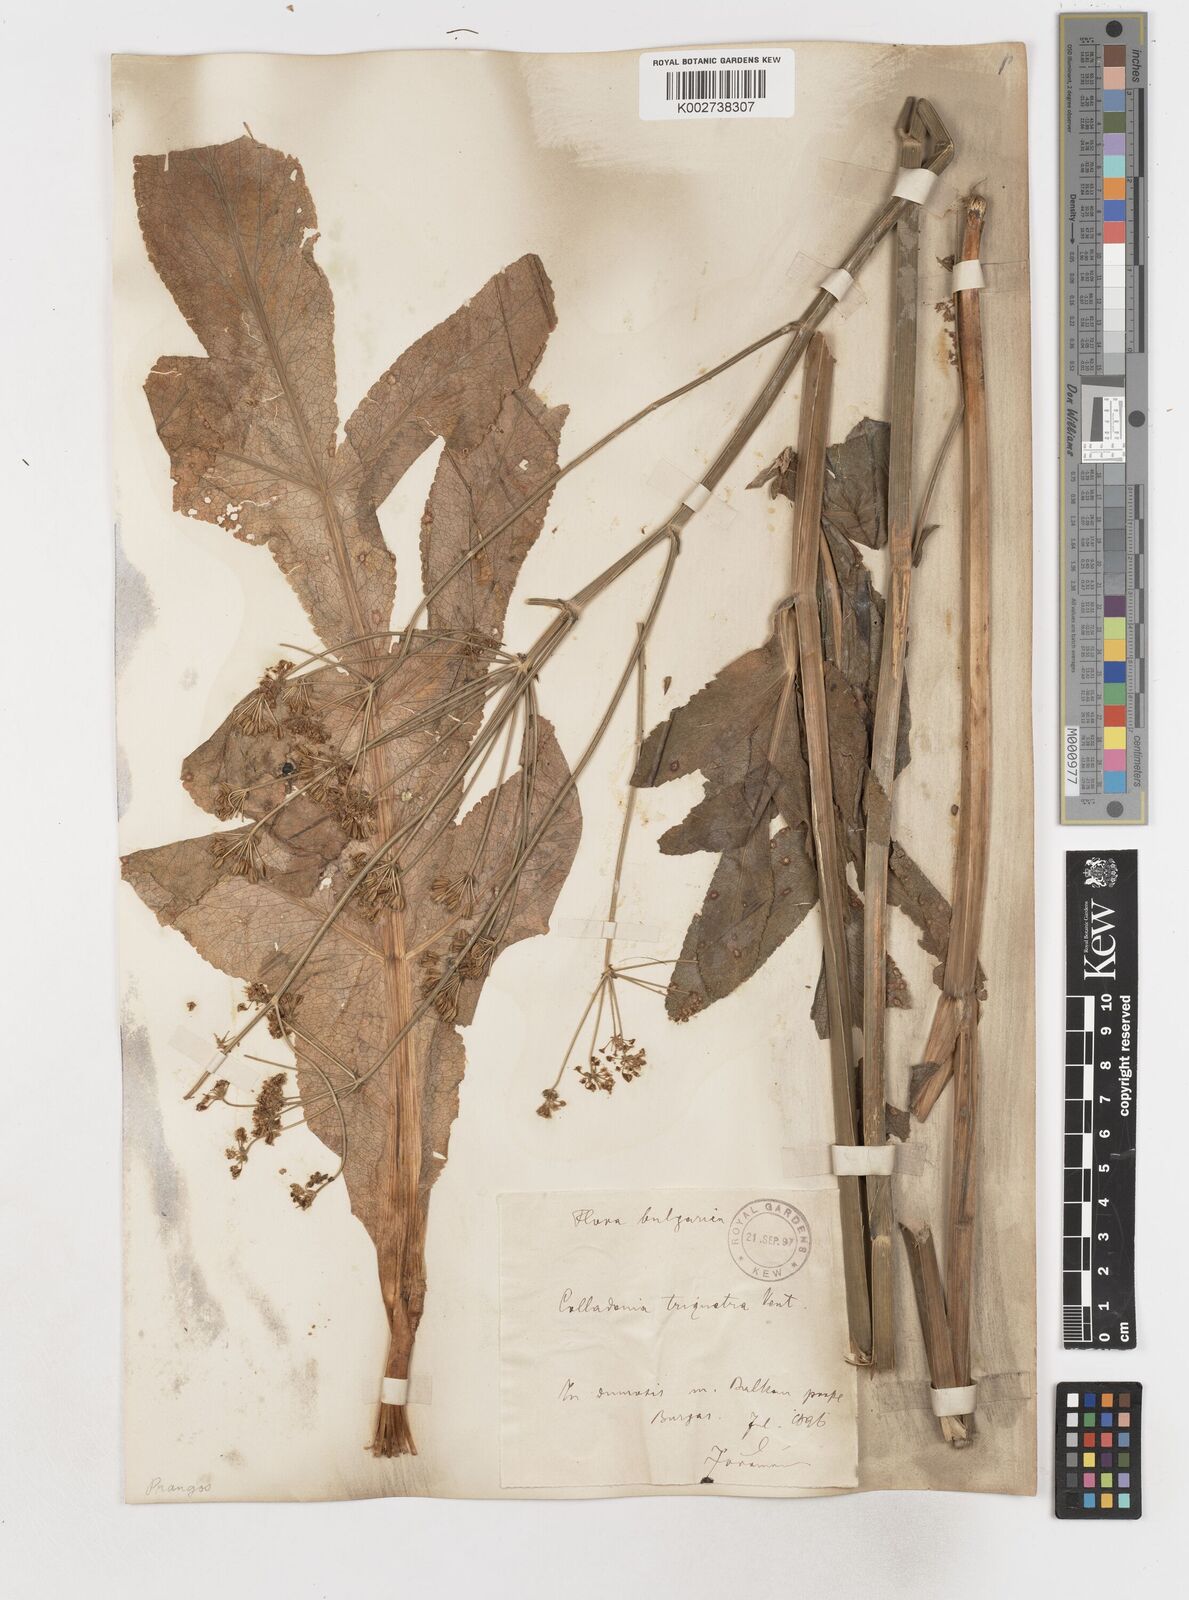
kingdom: Plantae
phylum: Tracheophyta
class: Magnoliopsida
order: Apiales
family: Apiaceae
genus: Heptaptera
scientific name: Heptaptera triquetra
